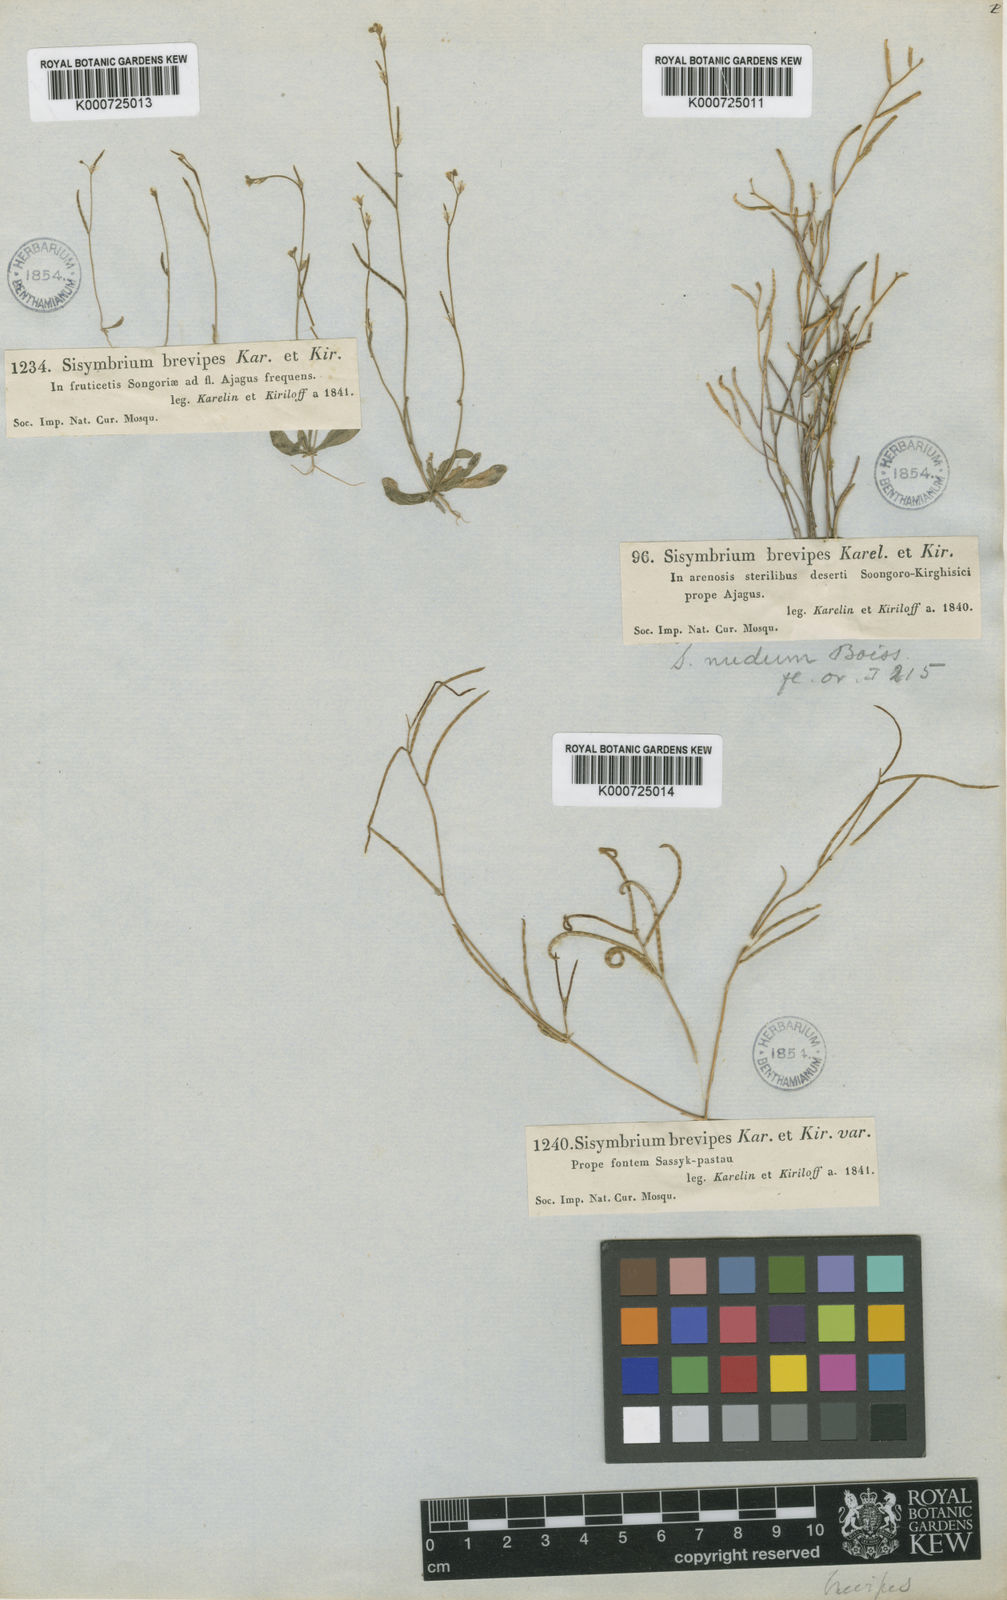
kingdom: Plantae
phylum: Tracheophyta
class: Magnoliopsida
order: Brassicales
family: Brassicaceae
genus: Neotorularia
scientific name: Neotorularia
